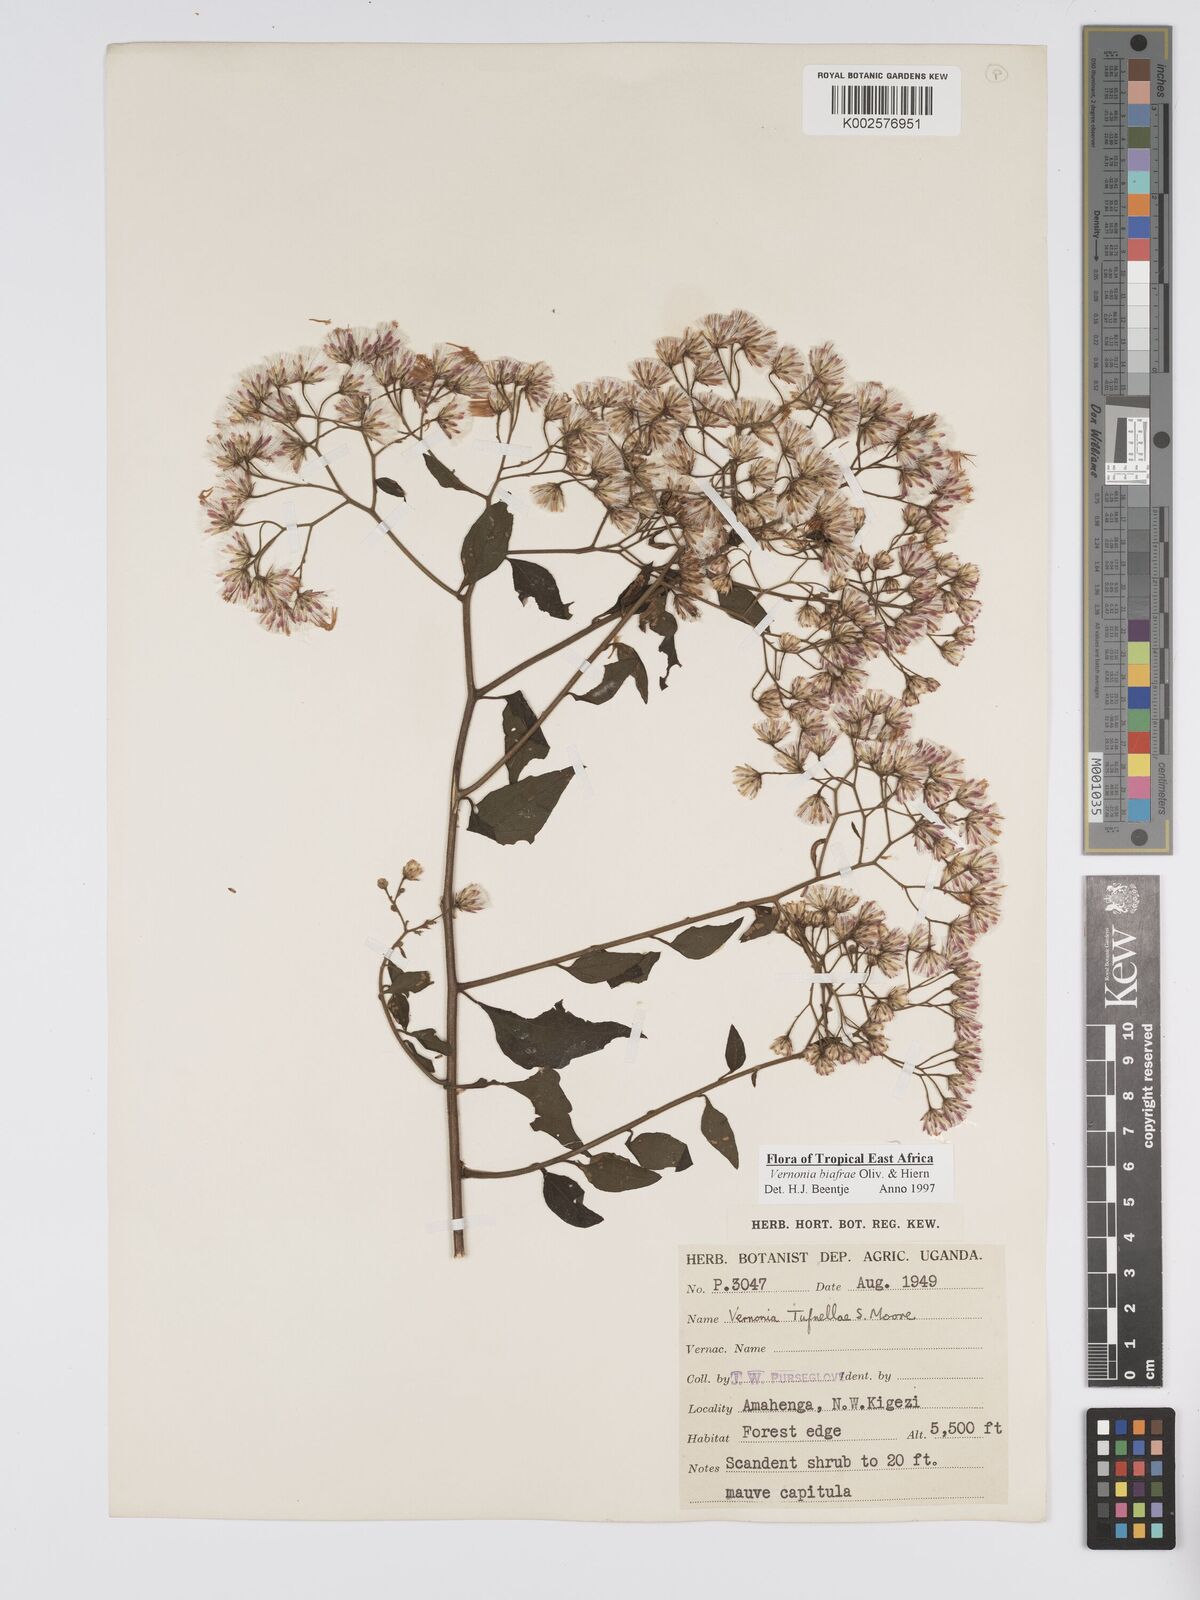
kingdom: Plantae
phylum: Tracheophyta
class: Magnoliopsida
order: Asterales
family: Asteraceae
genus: Distephanus
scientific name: Distephanus biafrae
